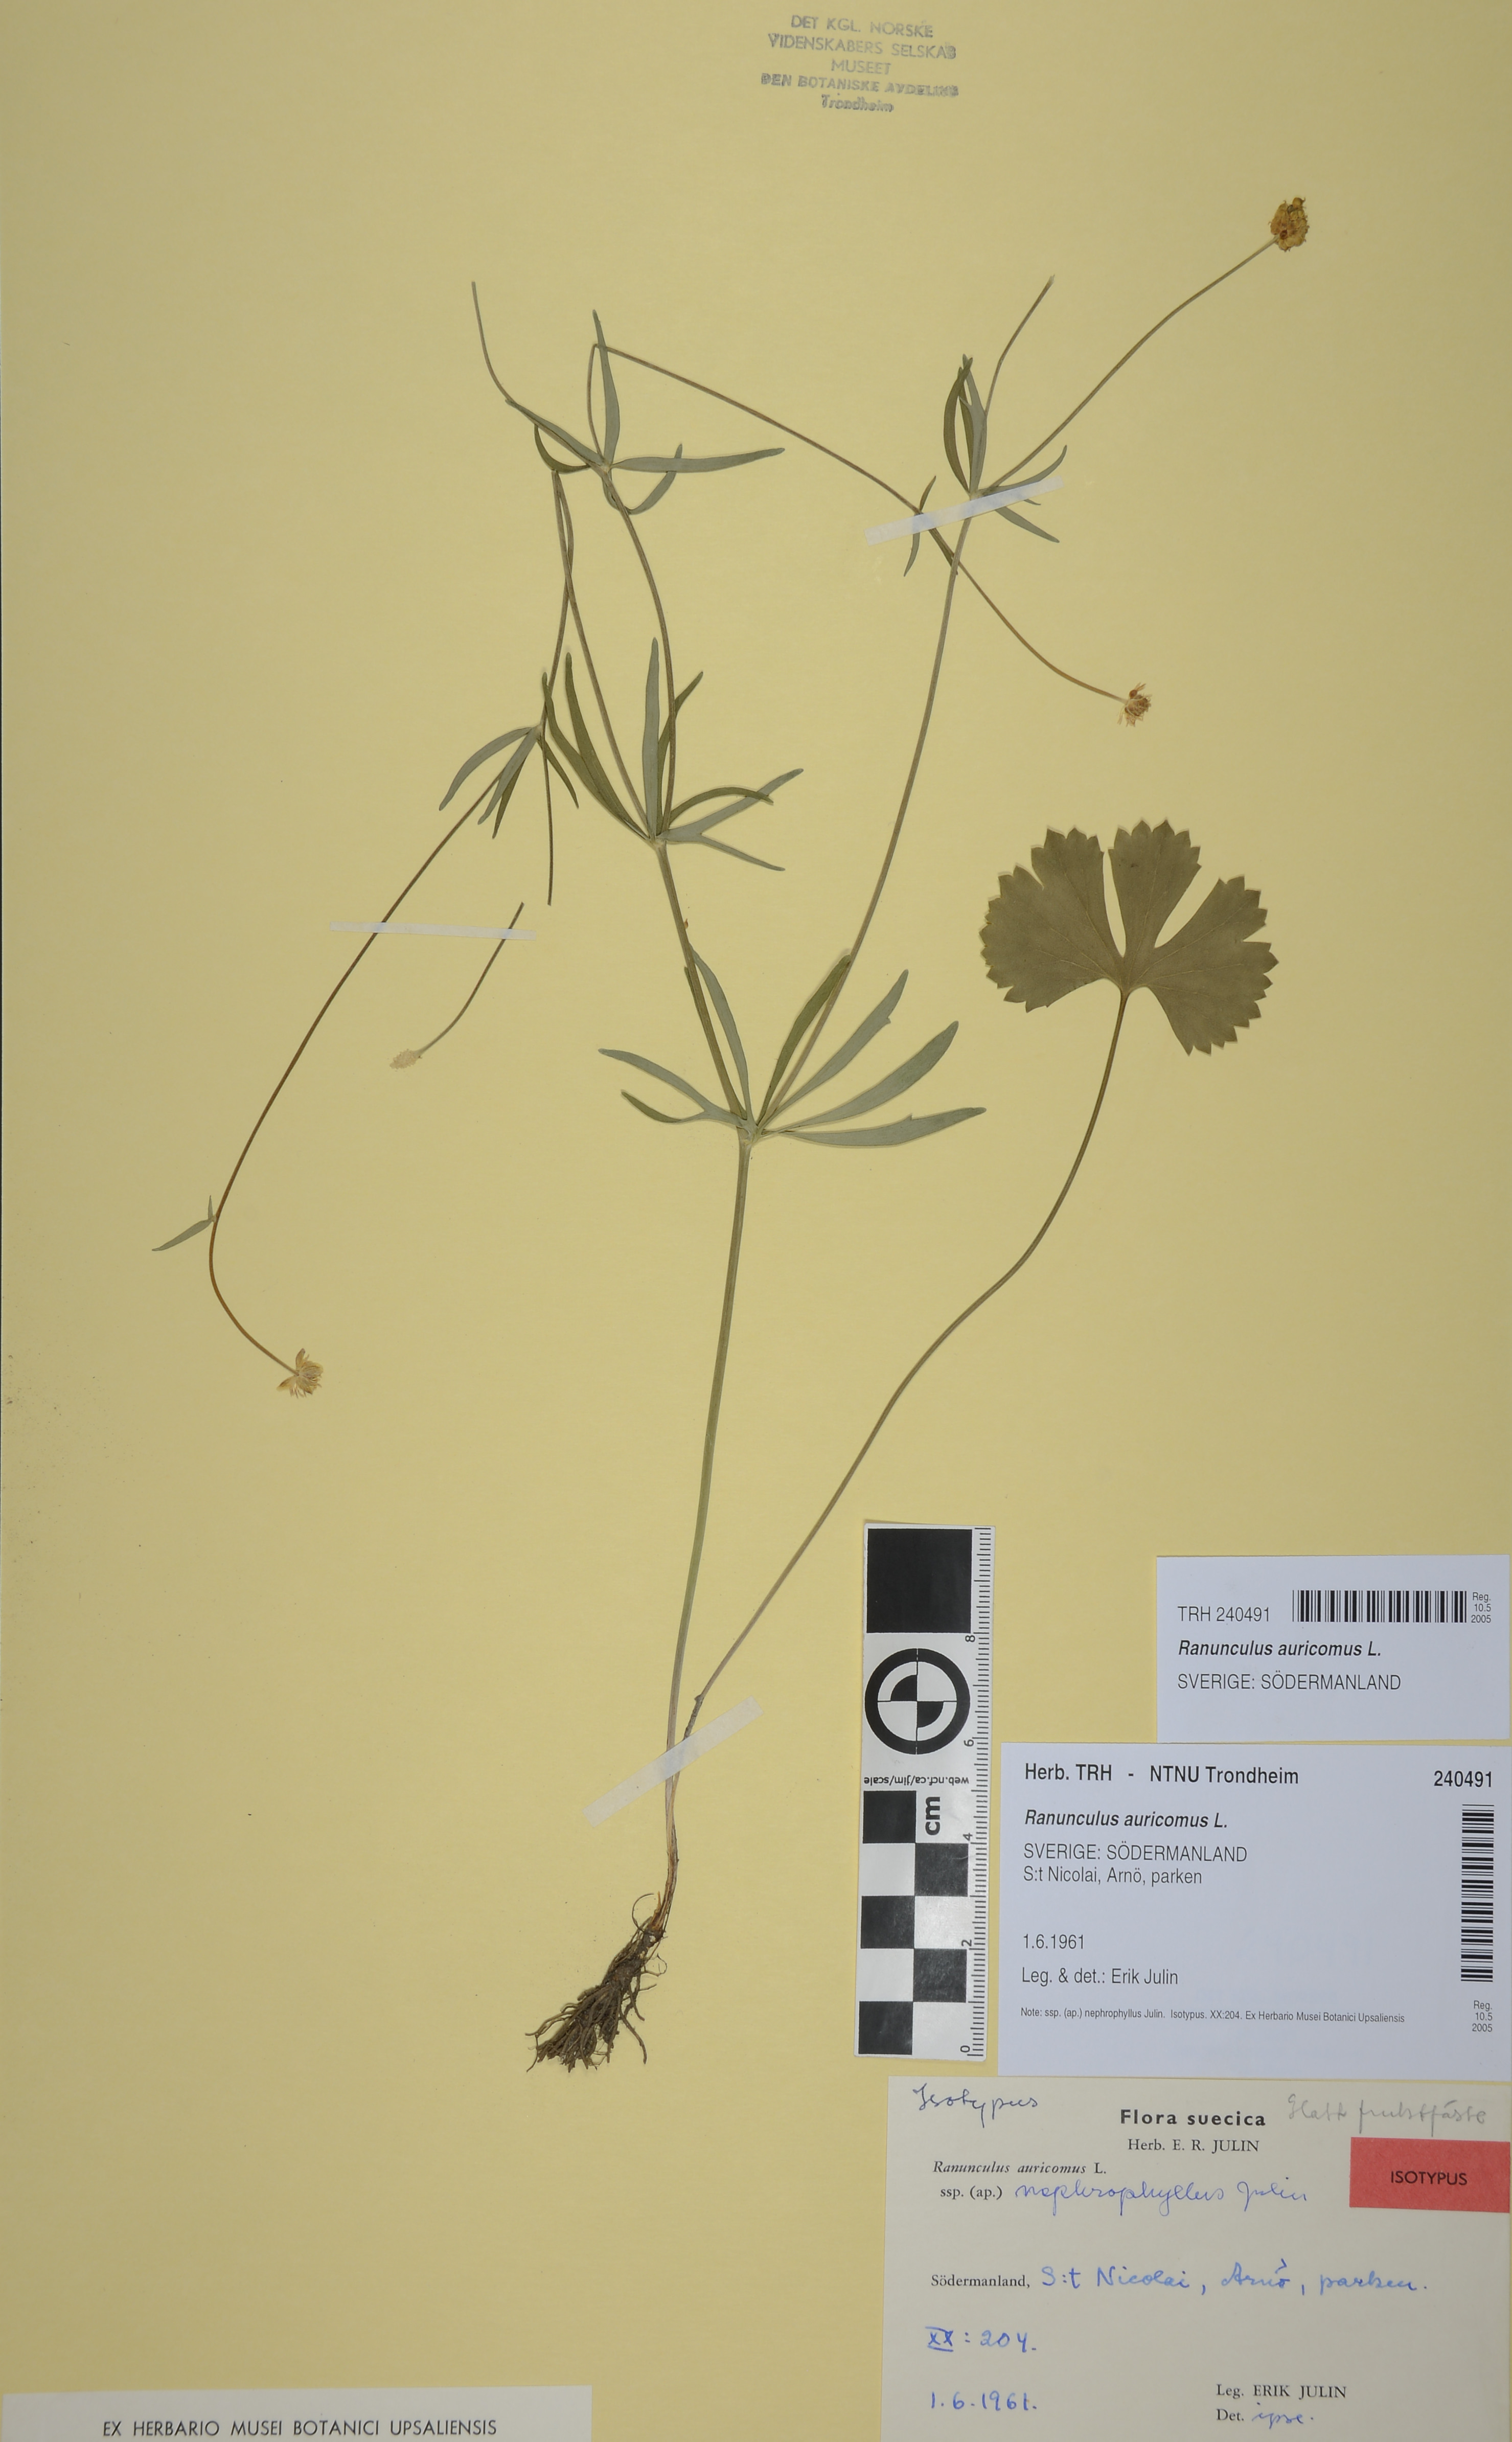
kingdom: Plantae
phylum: Tracheophyta
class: Magnoliopsida
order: Ranunculales
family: Ranunculaceae
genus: Ranunculus
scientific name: Ranunculus auricomus
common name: Goldilocks buttercup
